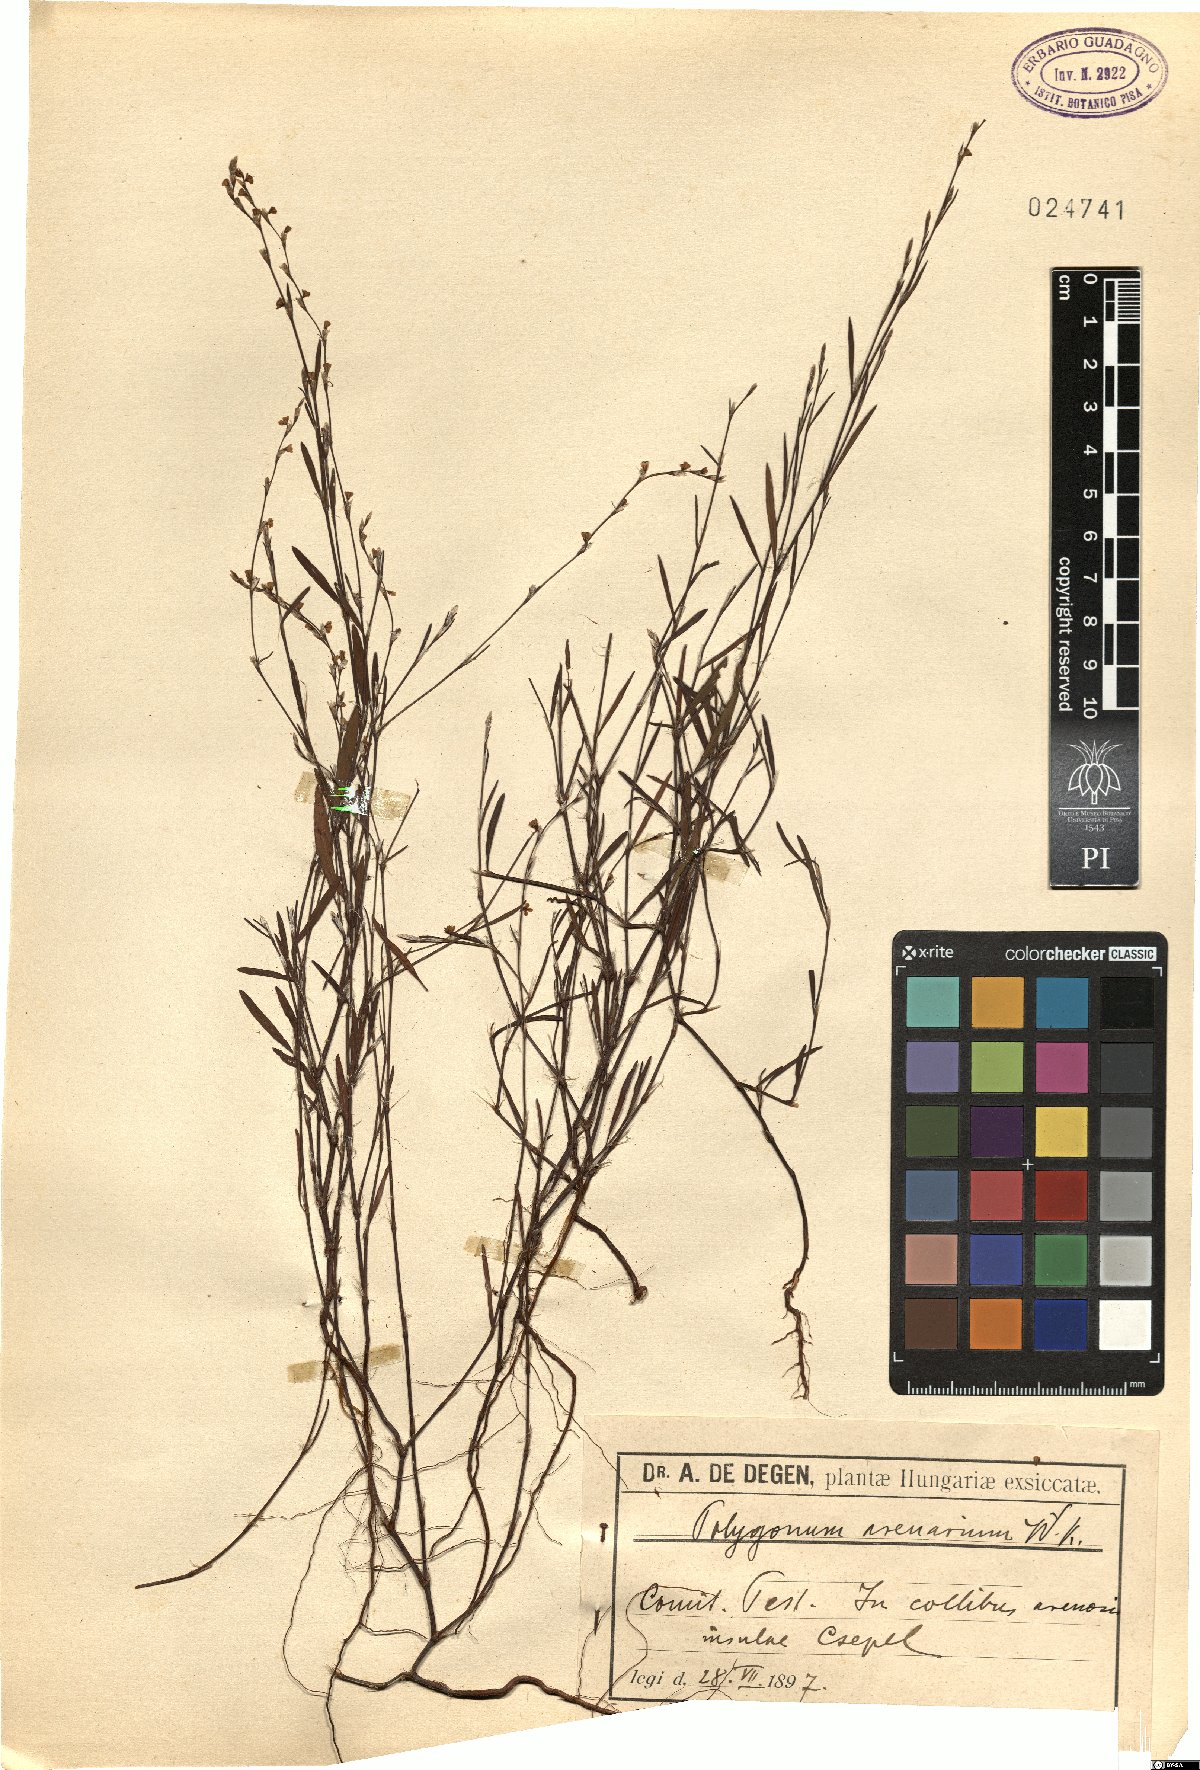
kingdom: Plantae
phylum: Tracheophyta
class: Magnoliopsida
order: Caryophyllales
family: Polygonaceae
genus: Polygonum
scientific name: Polygonum arenarium
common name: Lesser red-knotgrass
